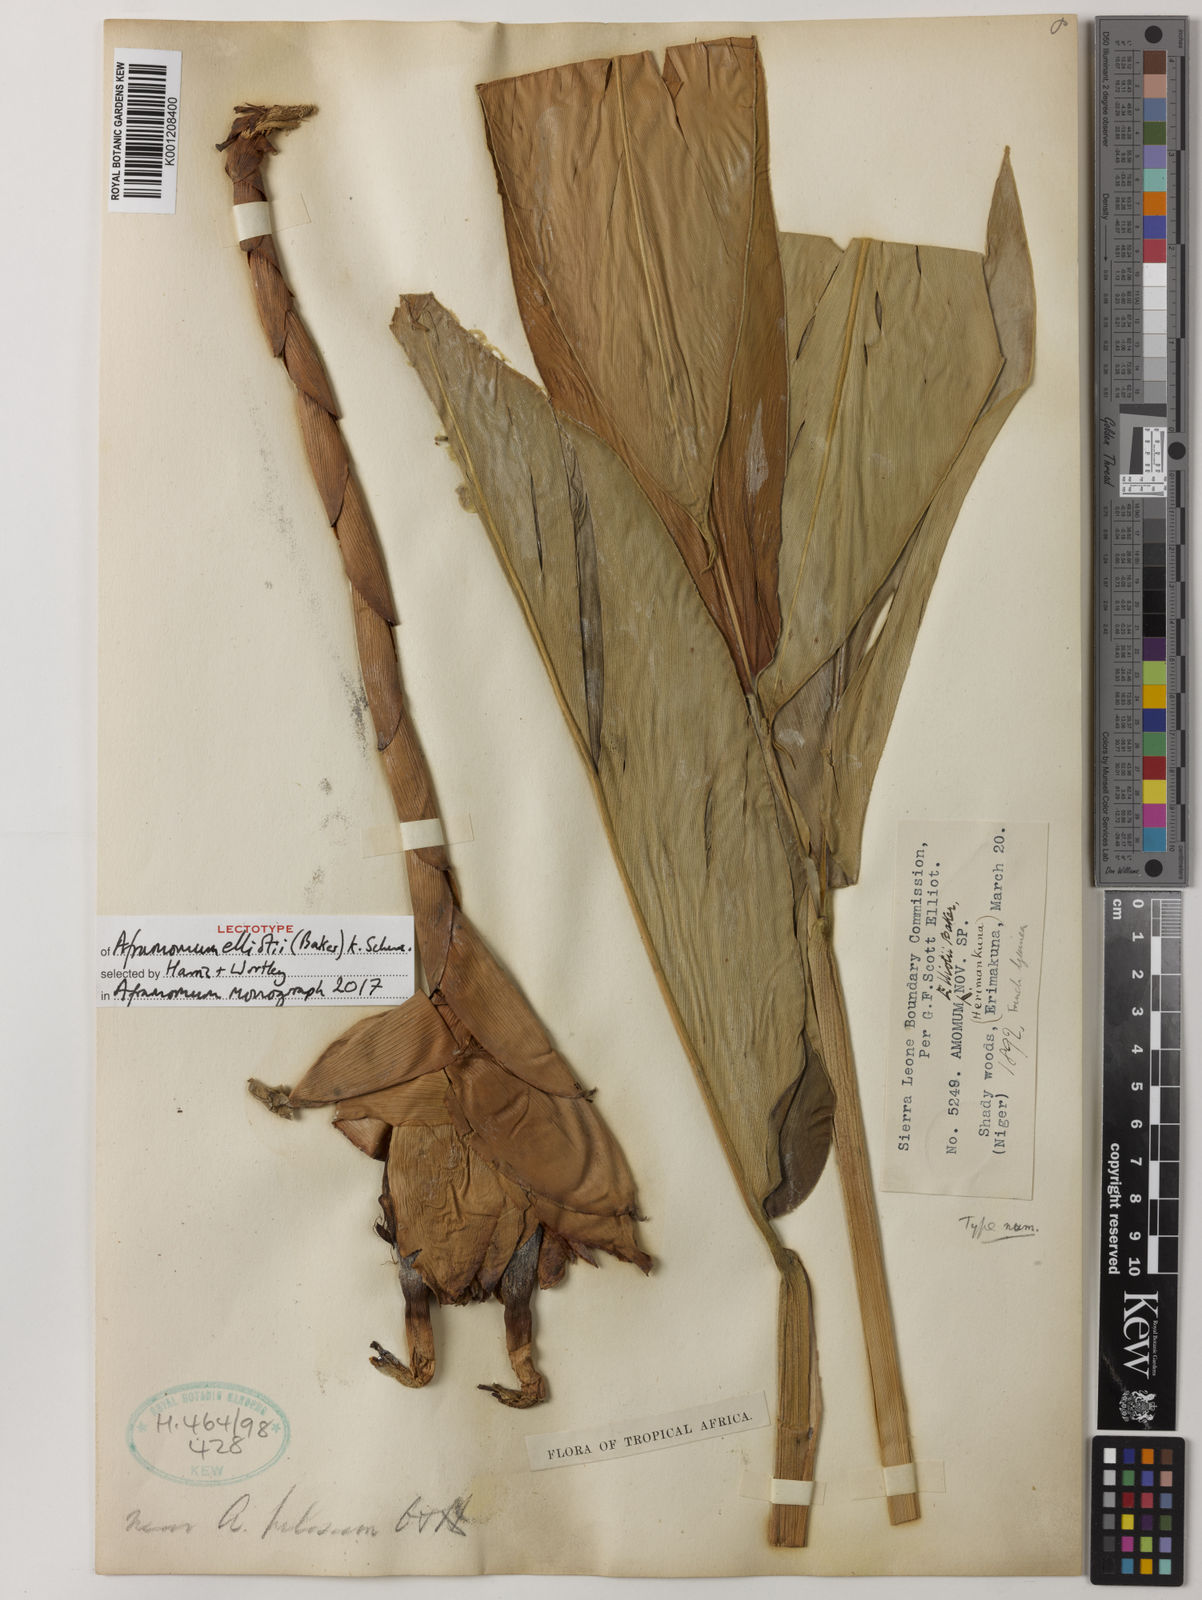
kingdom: Plantae
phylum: Tracheophyta
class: Liliopsida
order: Zingiberales
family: Zingiberaceae
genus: Aframomum
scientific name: Aframomum elliottii
